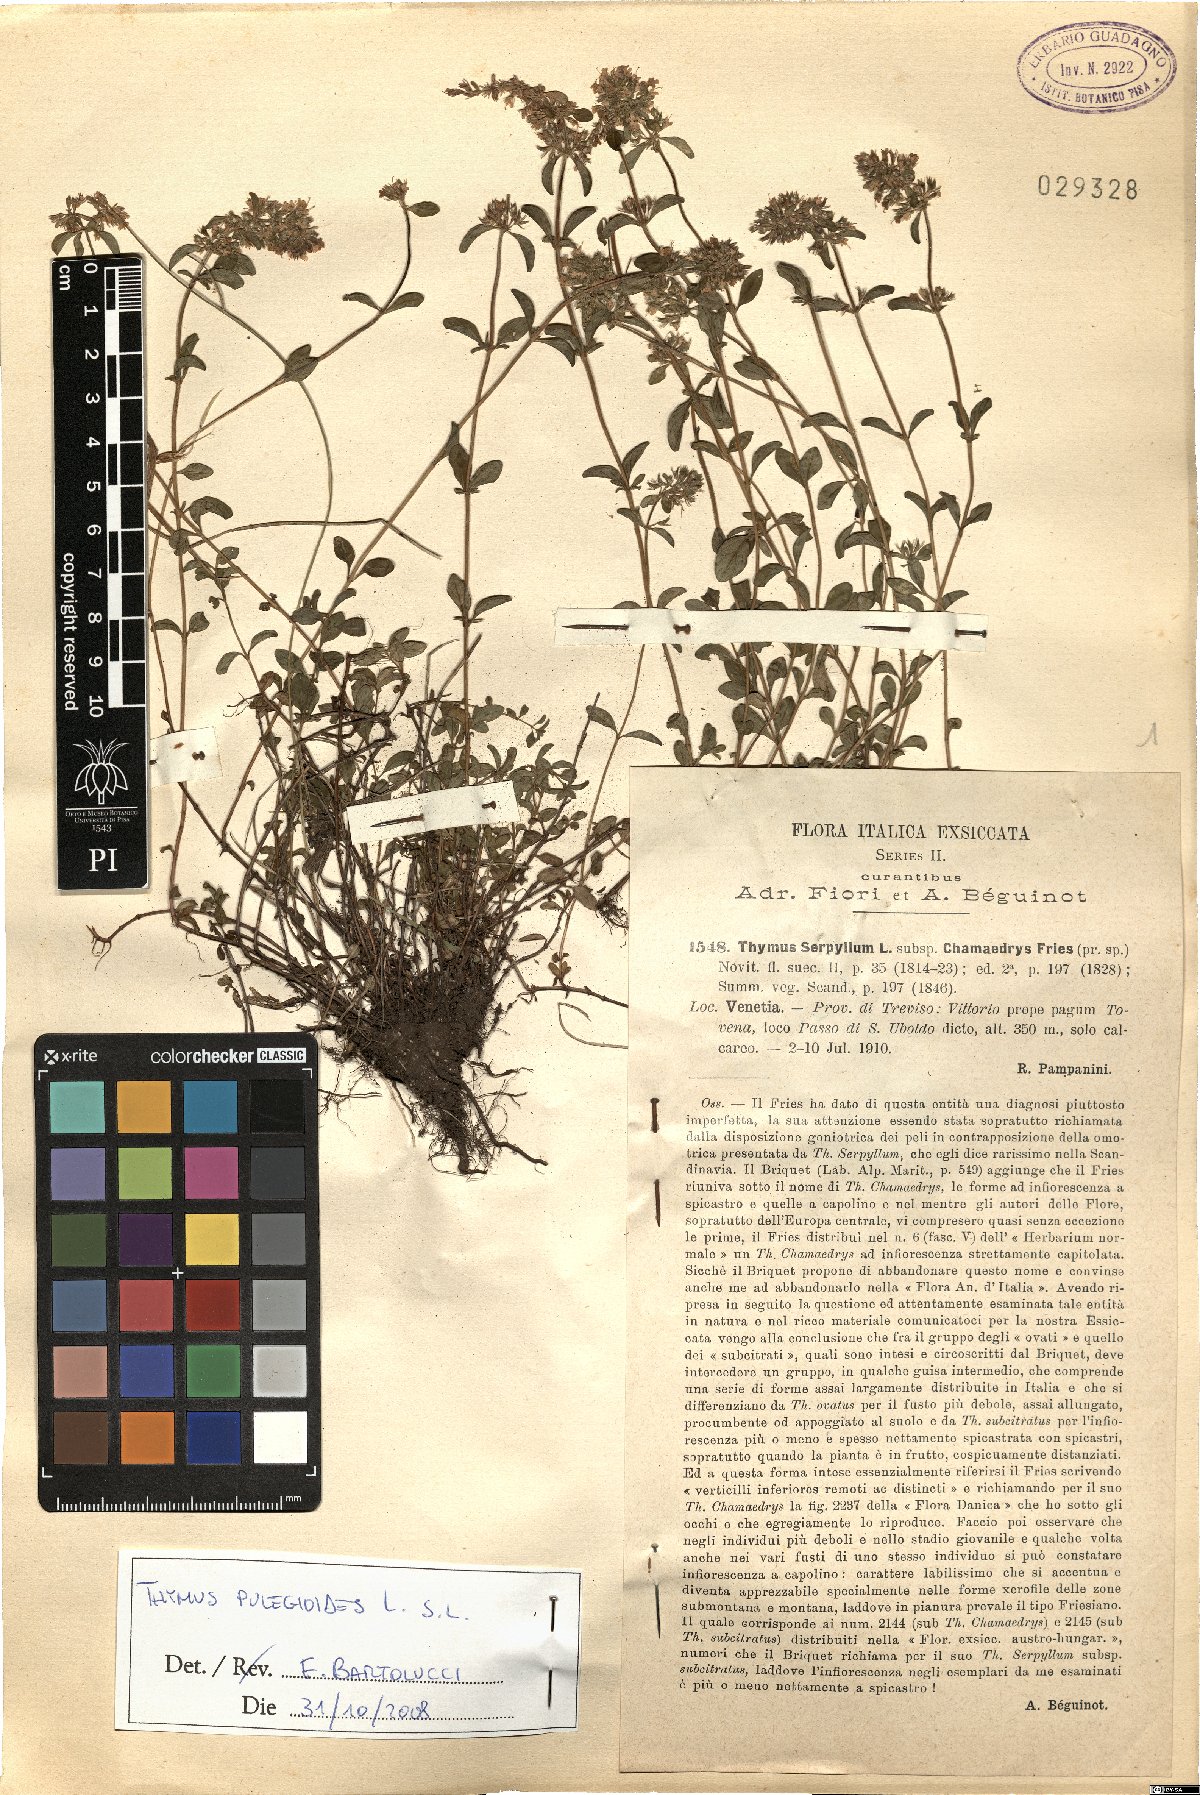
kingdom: Plantae
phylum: Tracheophyta
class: Magnoliopsida
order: Lamiales
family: Lamiaceae
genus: Thymus
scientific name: Thymus pulegioides
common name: Large thyme
